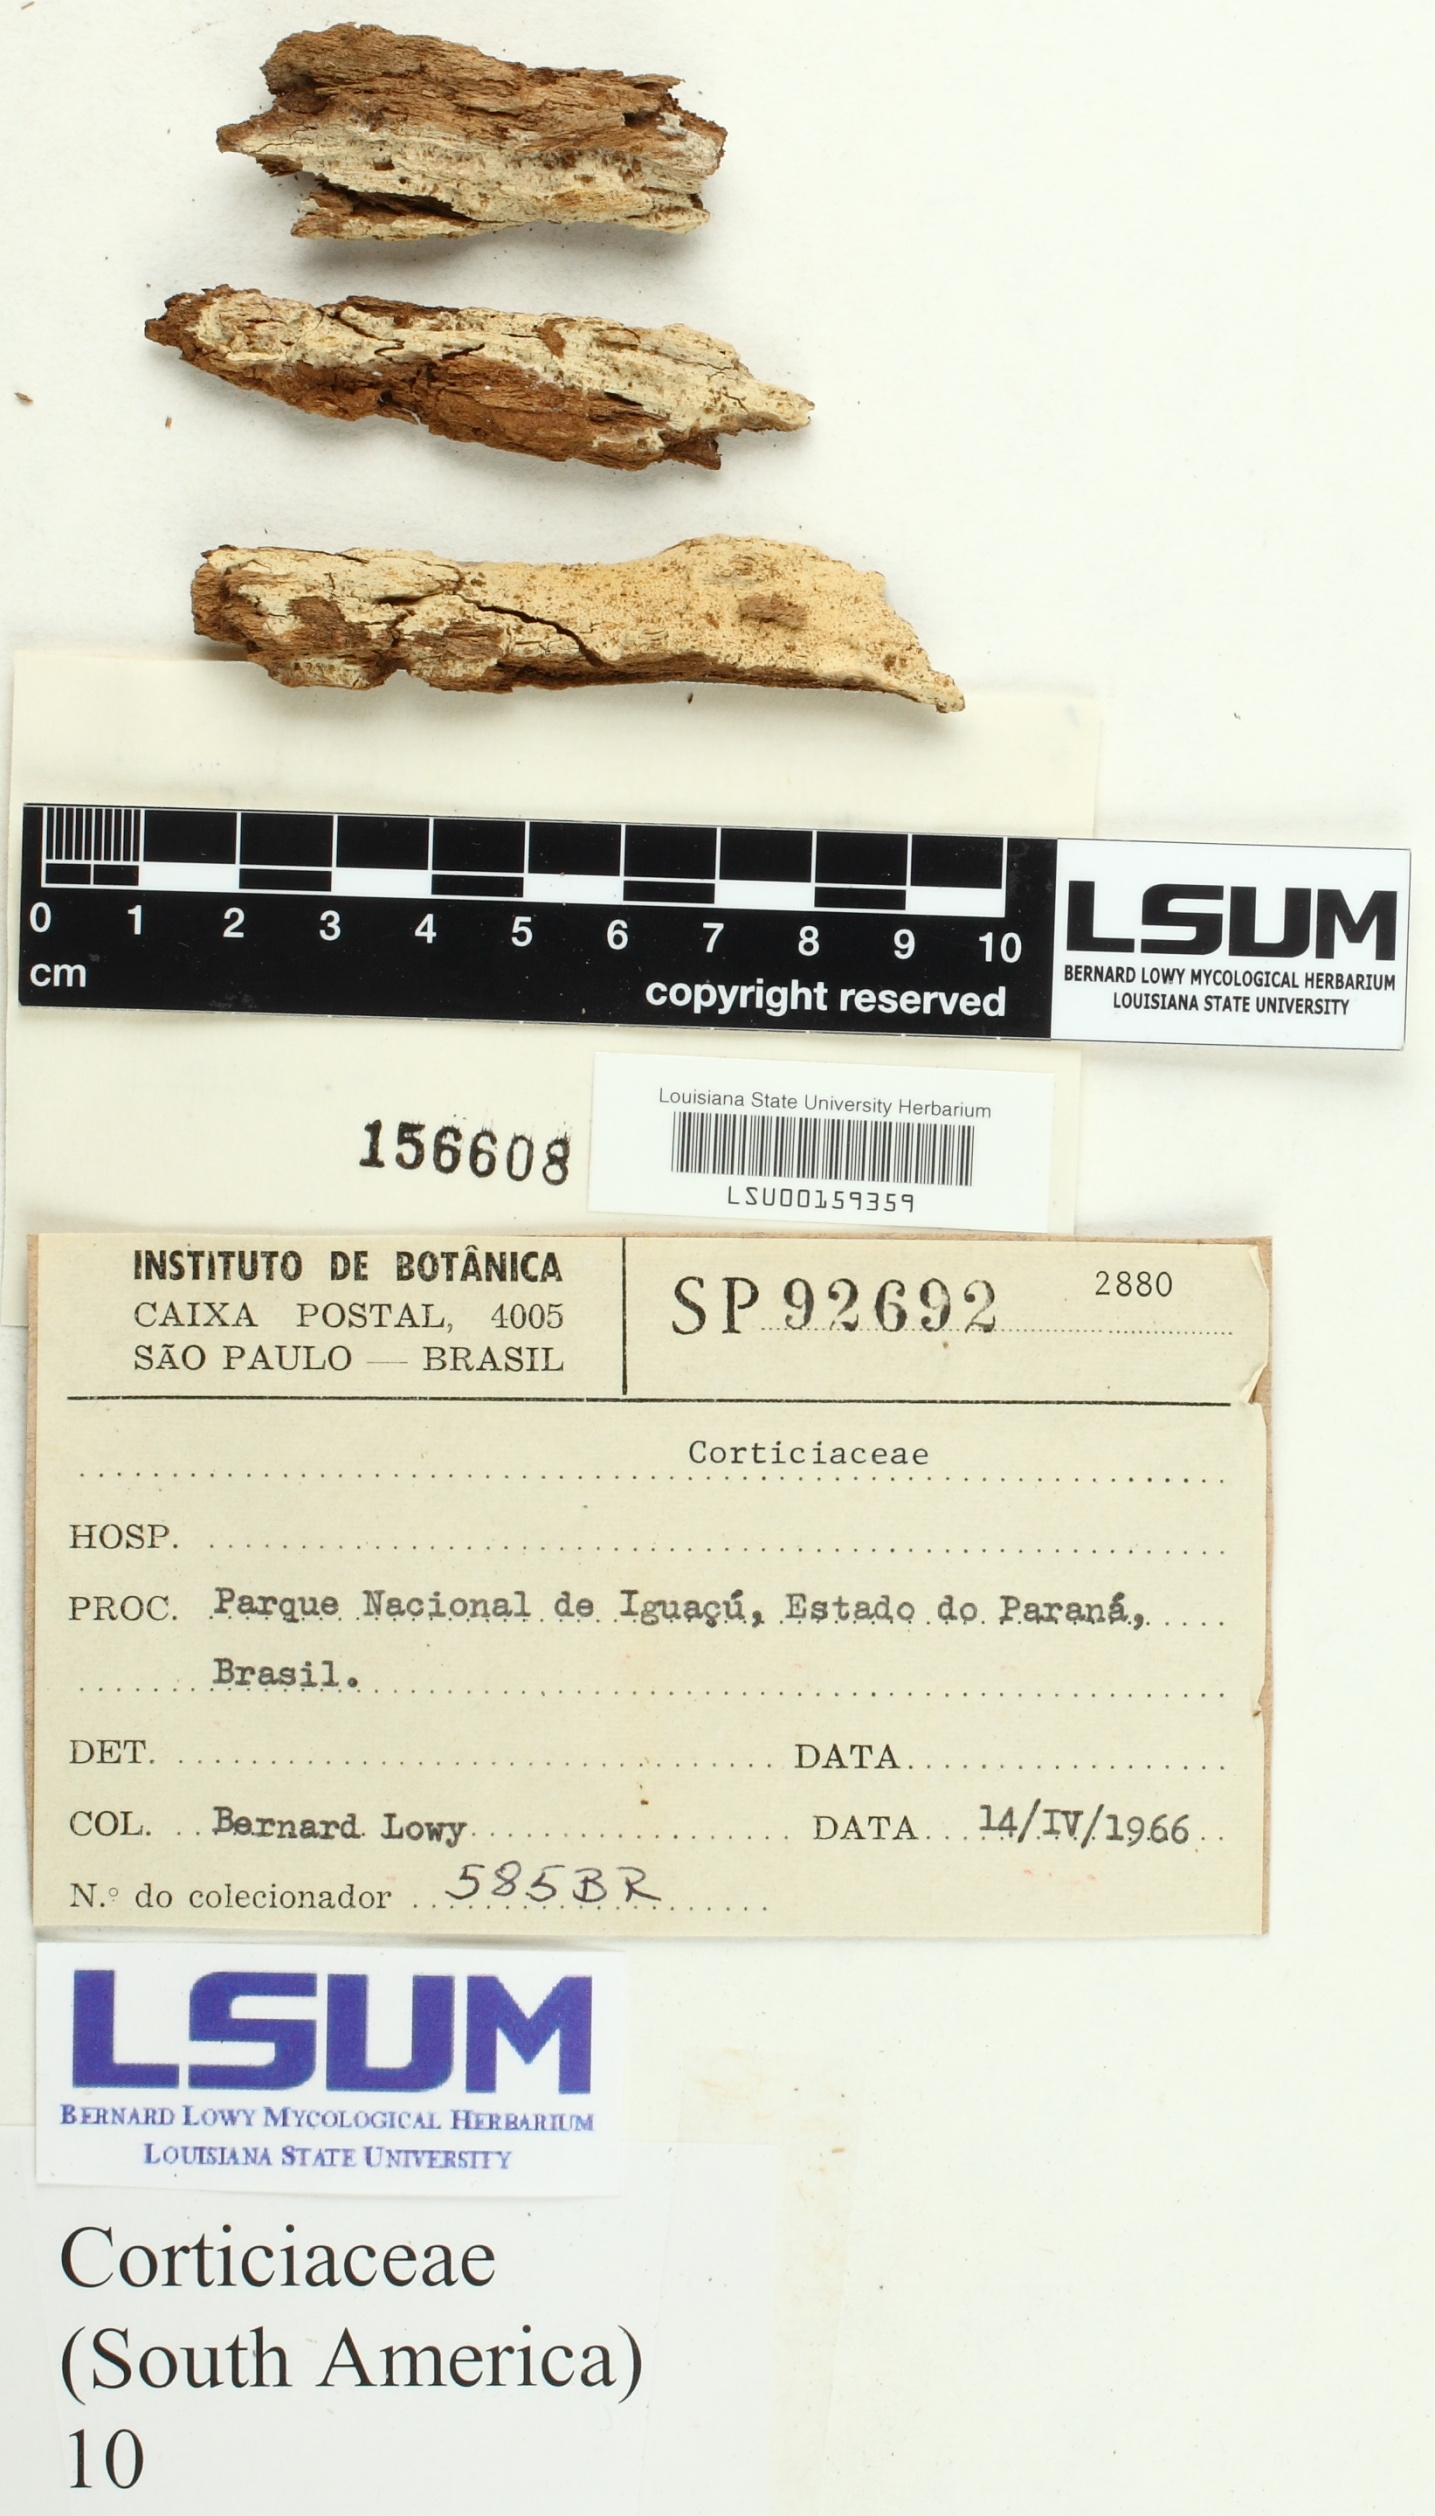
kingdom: Fungi
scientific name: Fungi
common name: Fungi
